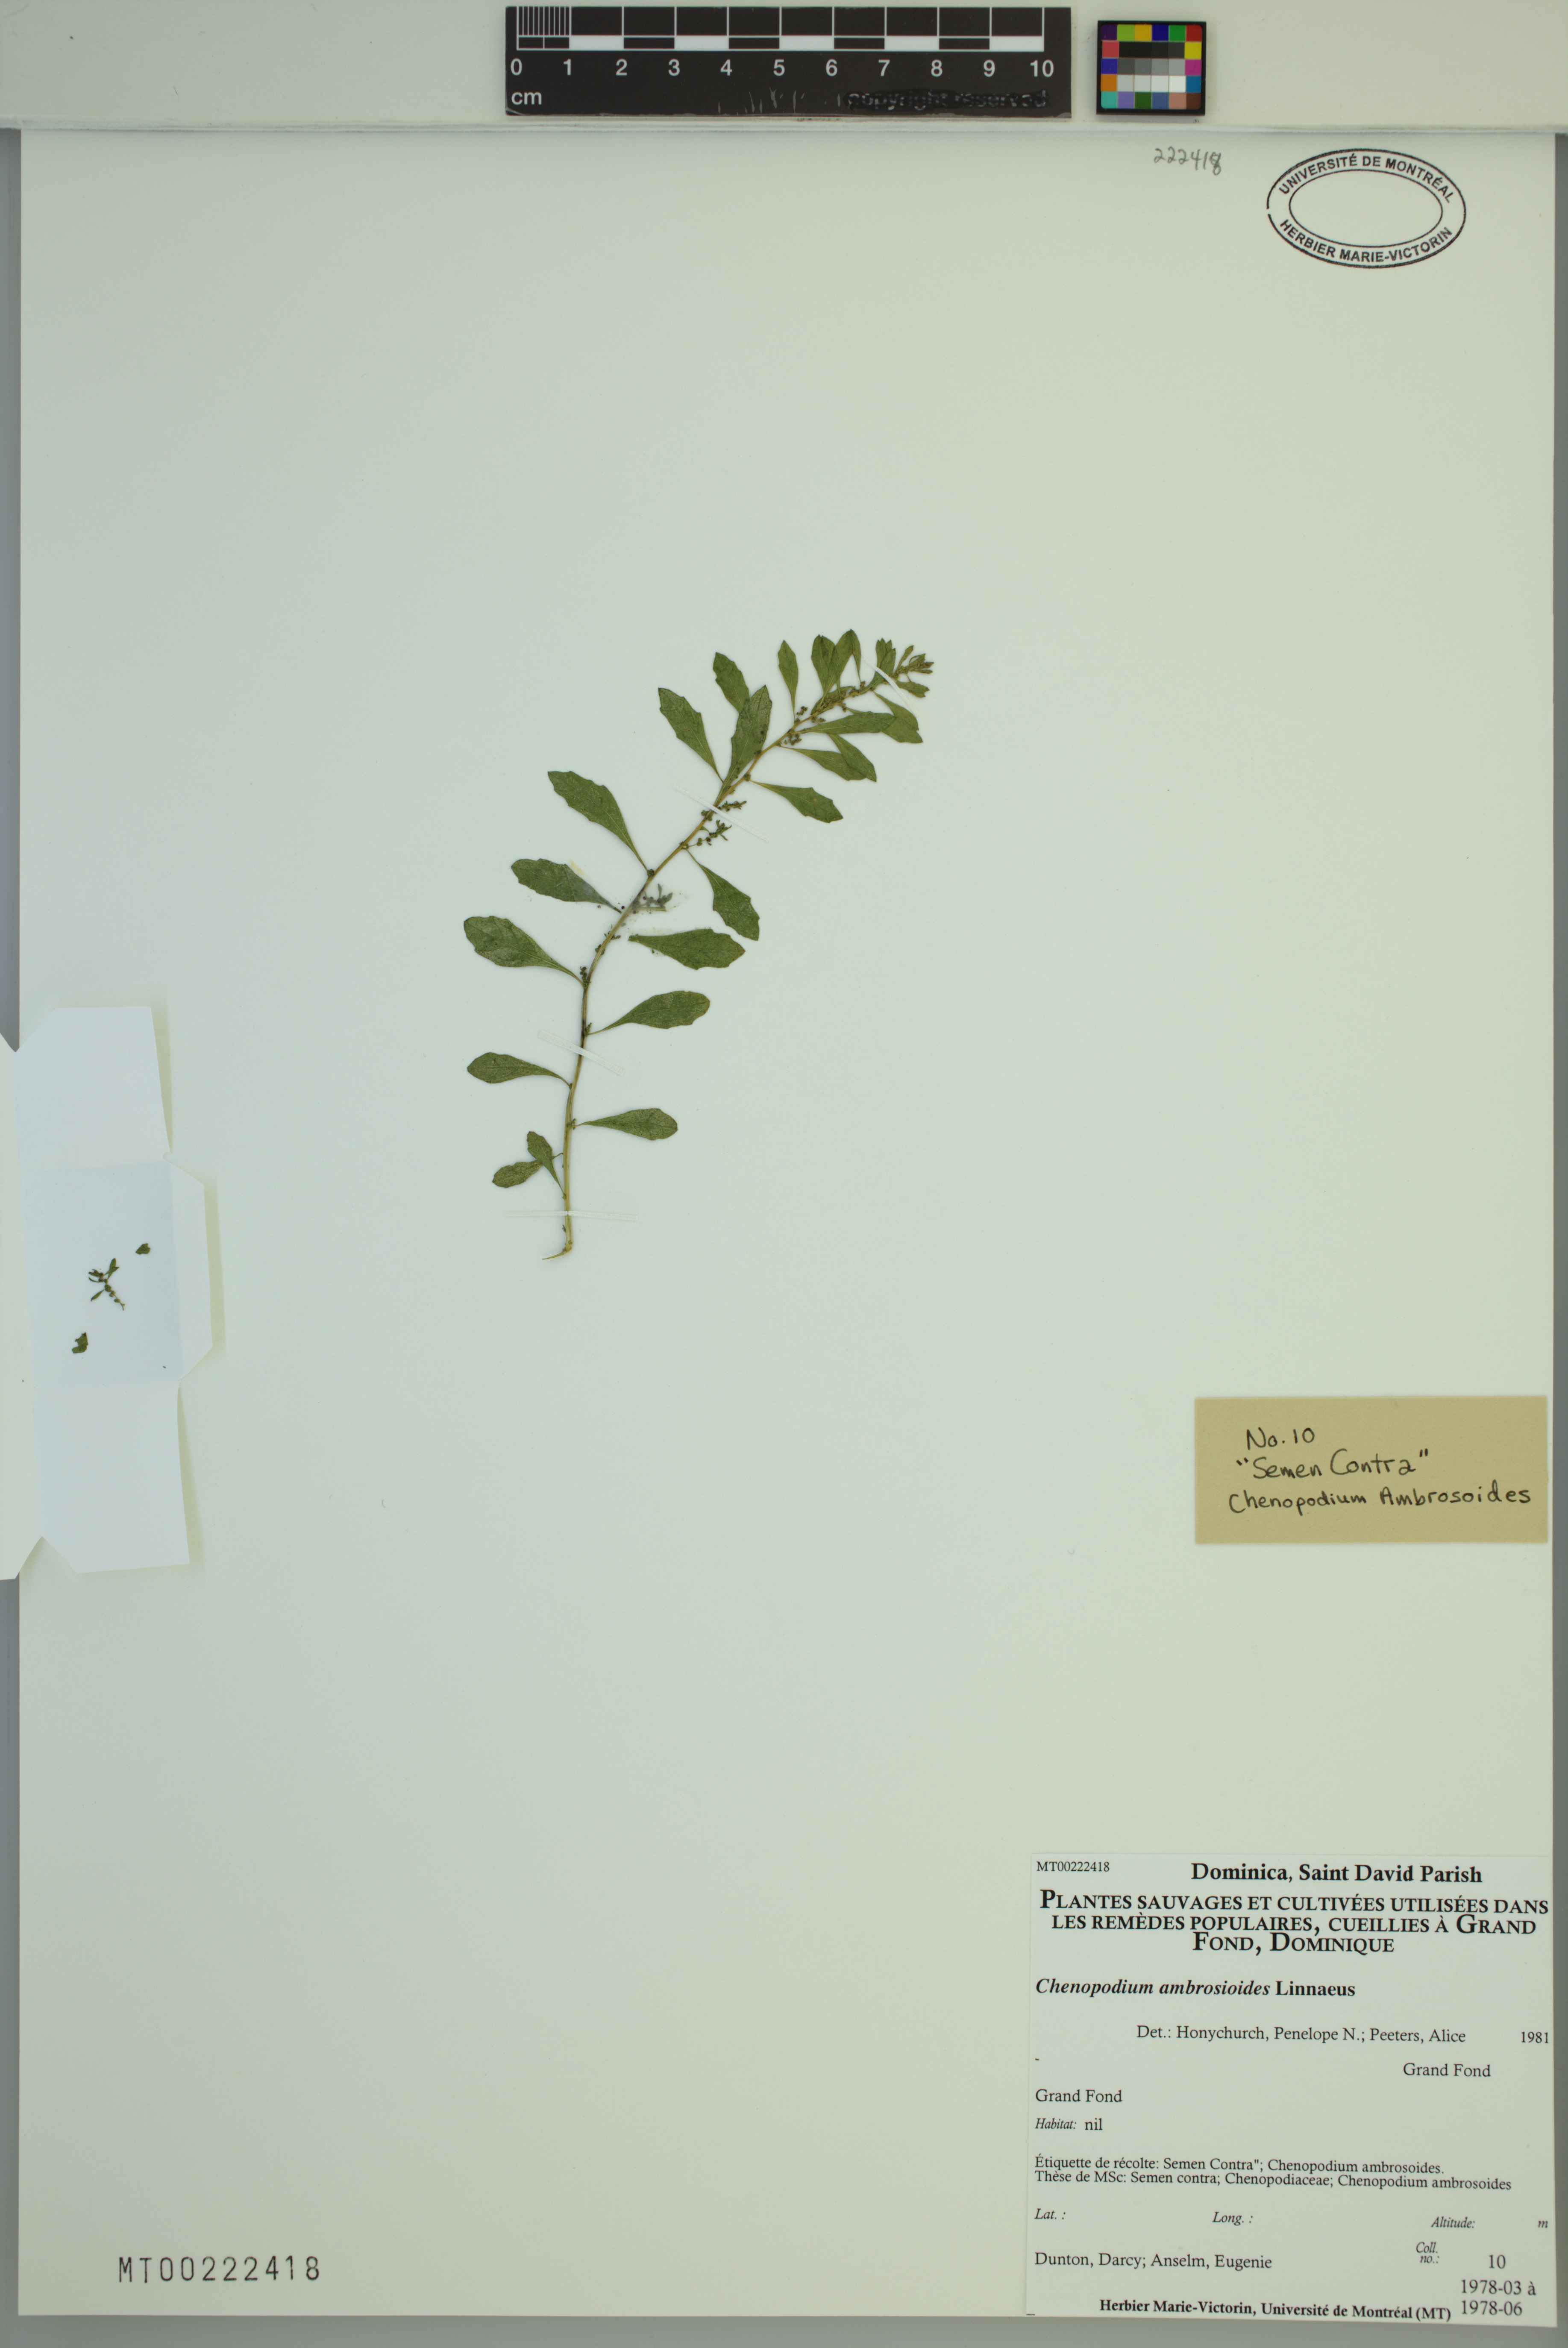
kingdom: Plantae
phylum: Tracheophyta
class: Magnoliopsida
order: Caryophyllales
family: Amaranthaceae
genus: Dysphania
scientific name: Dysphania ambrosioides
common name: Wormseed
